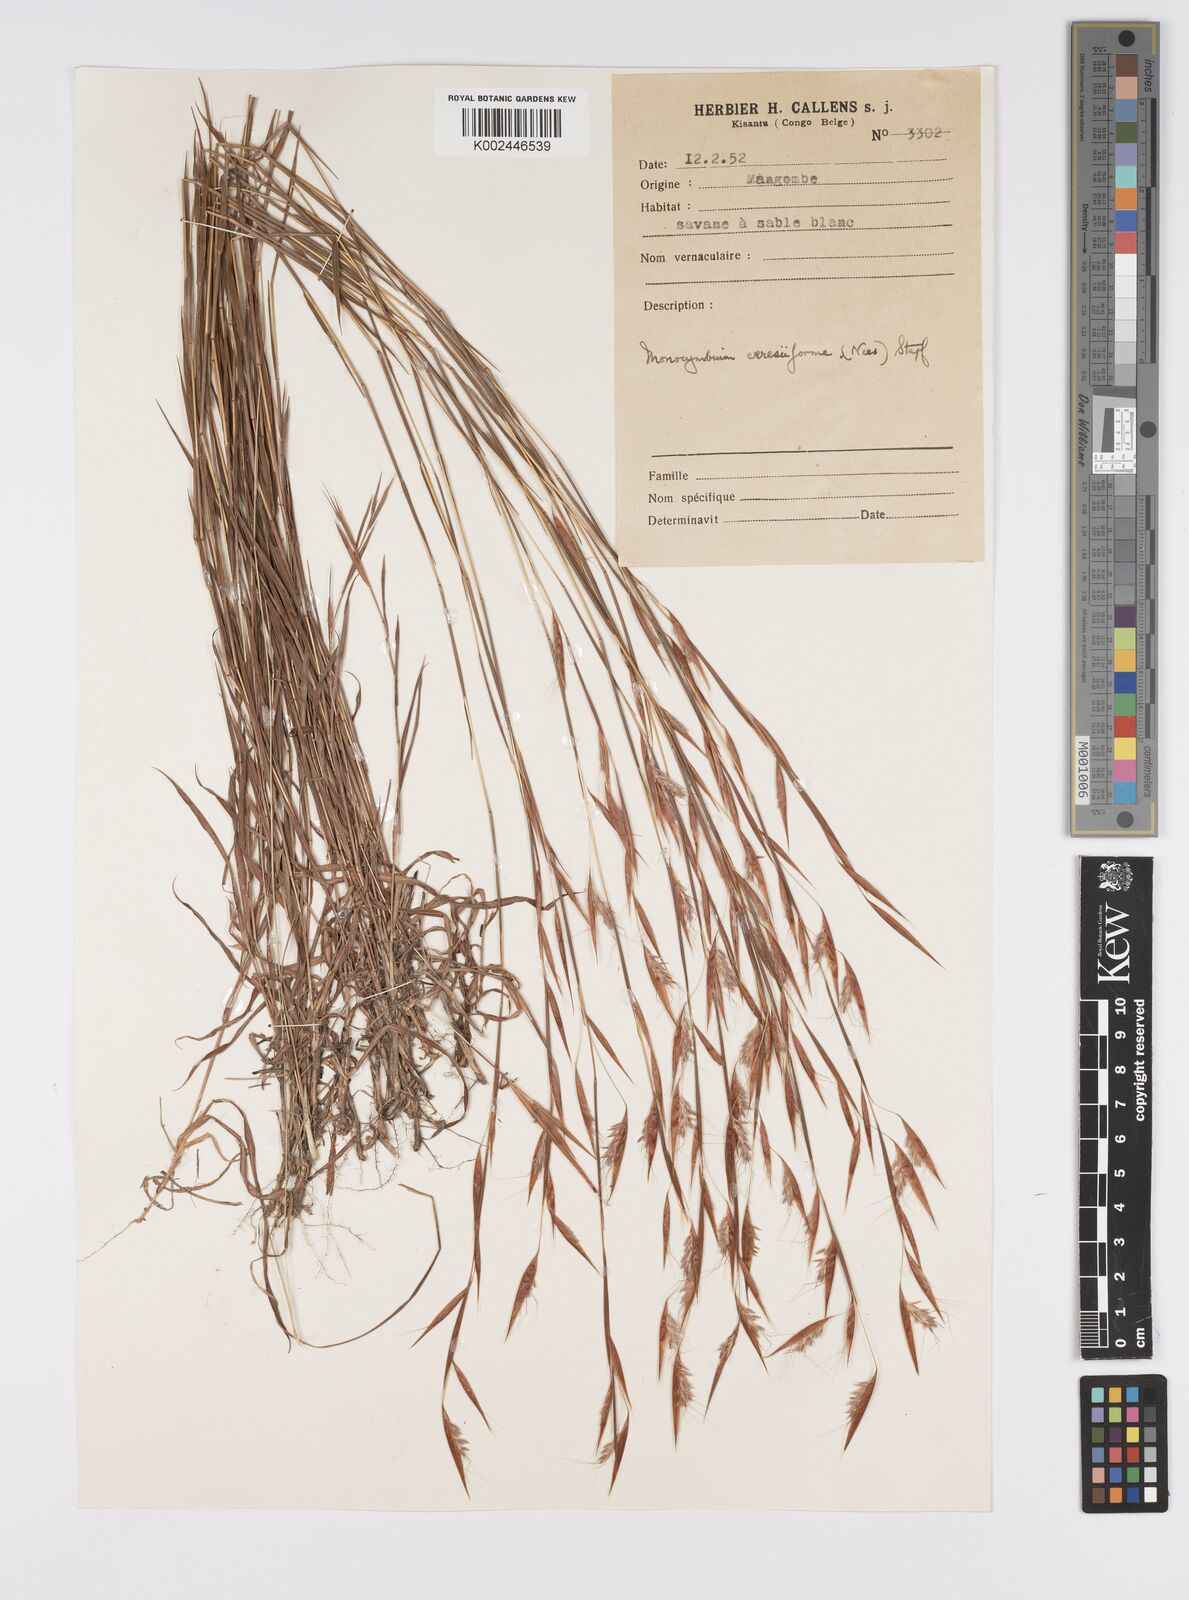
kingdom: Plantae
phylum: Tracheophyta
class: Liliopsida
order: Poales
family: Poaceae
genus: Monocymbium
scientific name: Monocymbium ceresiiforme
